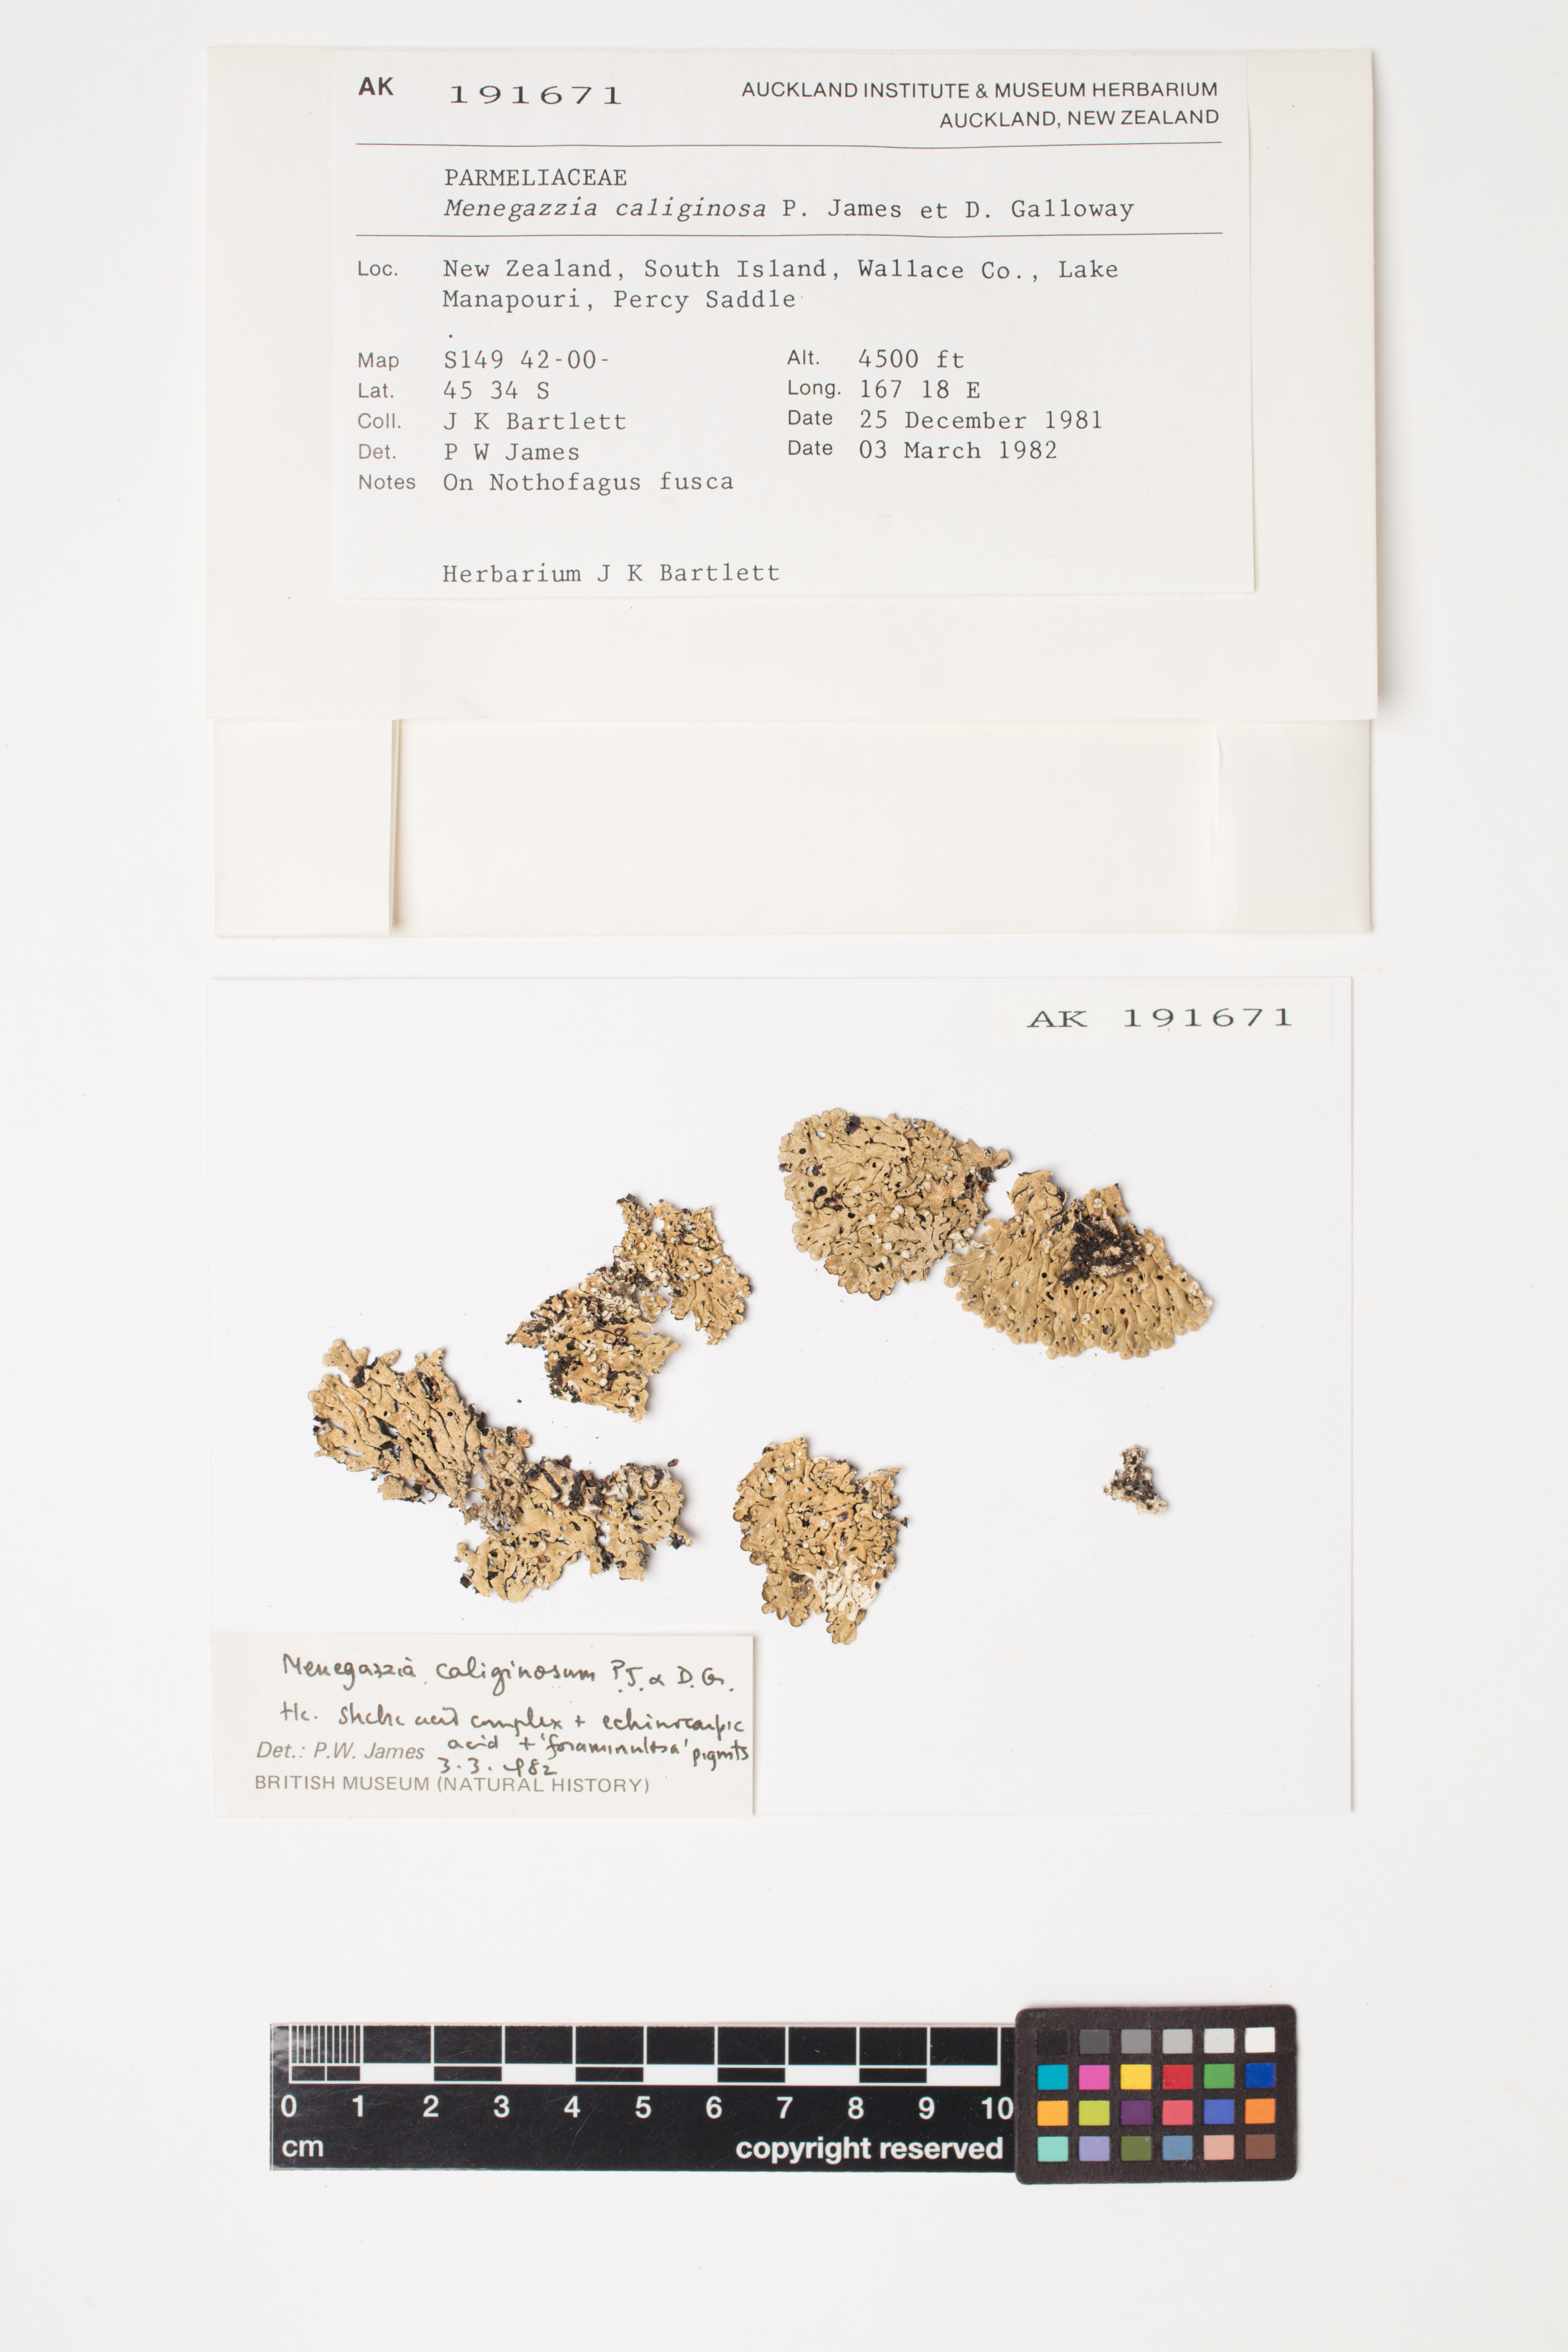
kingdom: Fungi
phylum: Ascomycota
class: Lecanoromycetes
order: Lecanorales
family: Parmeliaceae
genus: Menegazzia
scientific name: Menegazzia caliginosa
